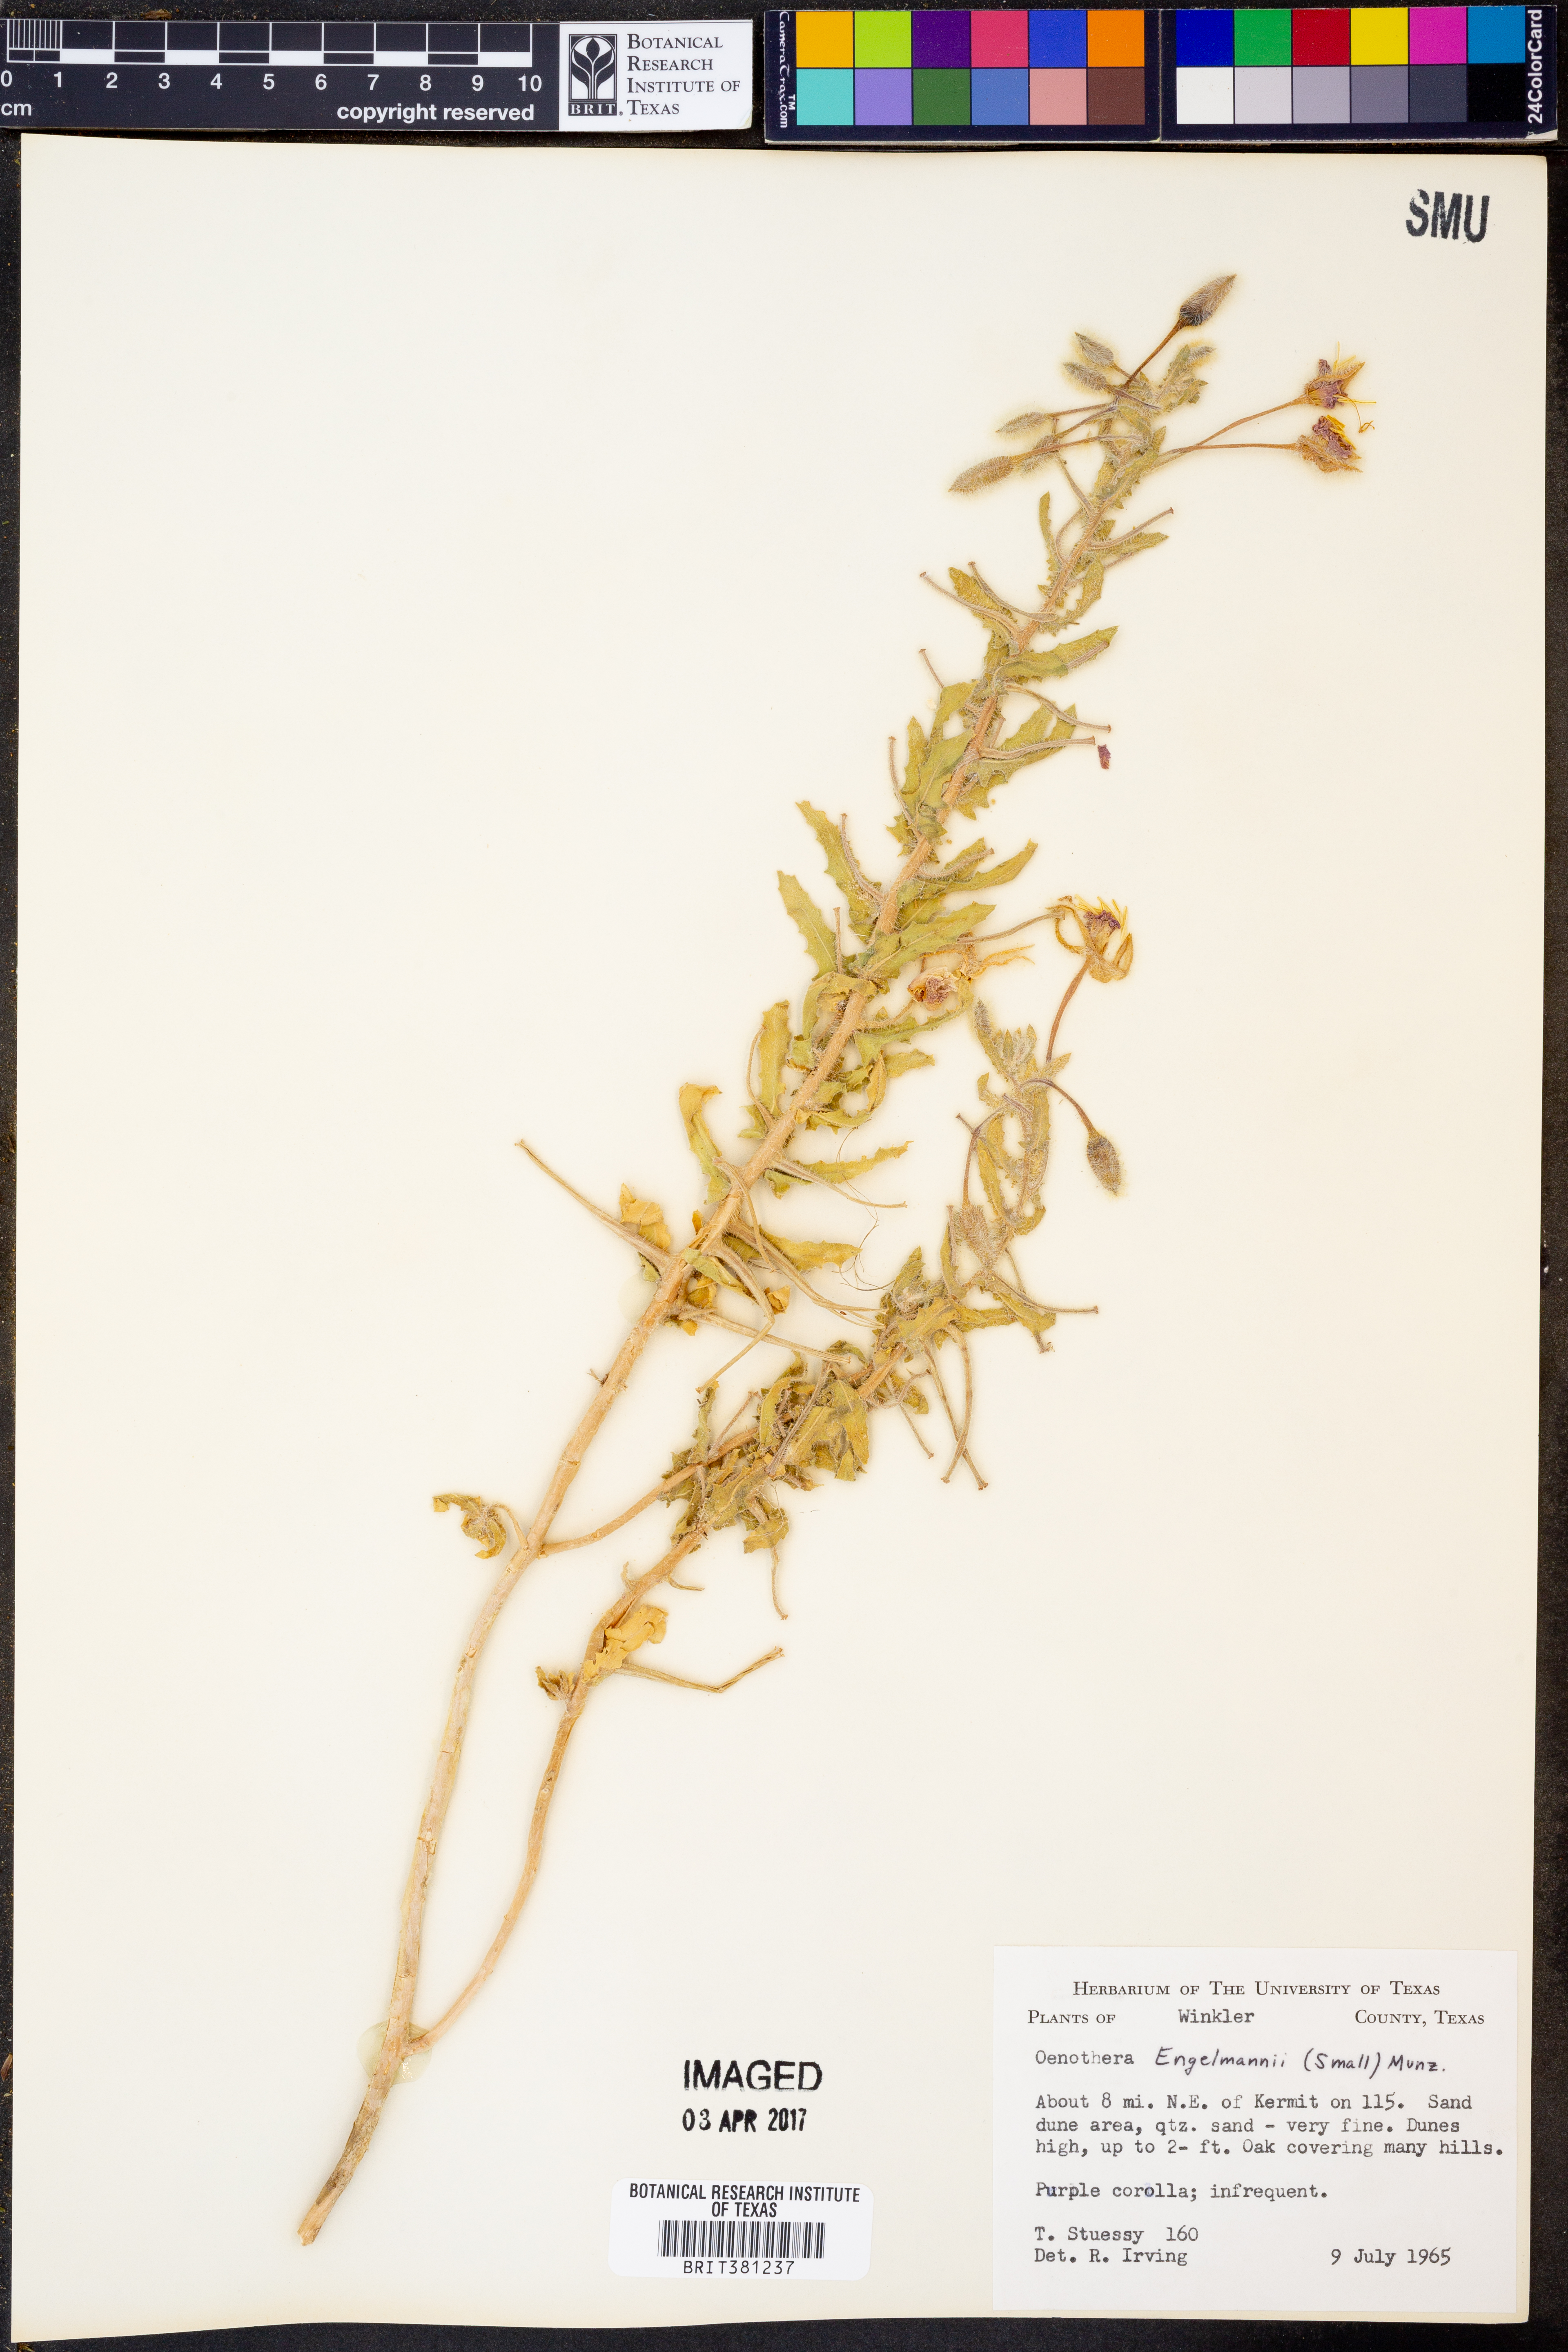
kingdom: Plantae
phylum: Tracheophyta
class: Magnoliopsida
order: Myrtales
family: Onagraceae
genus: Oenothera
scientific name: Oenothera engelmannii
